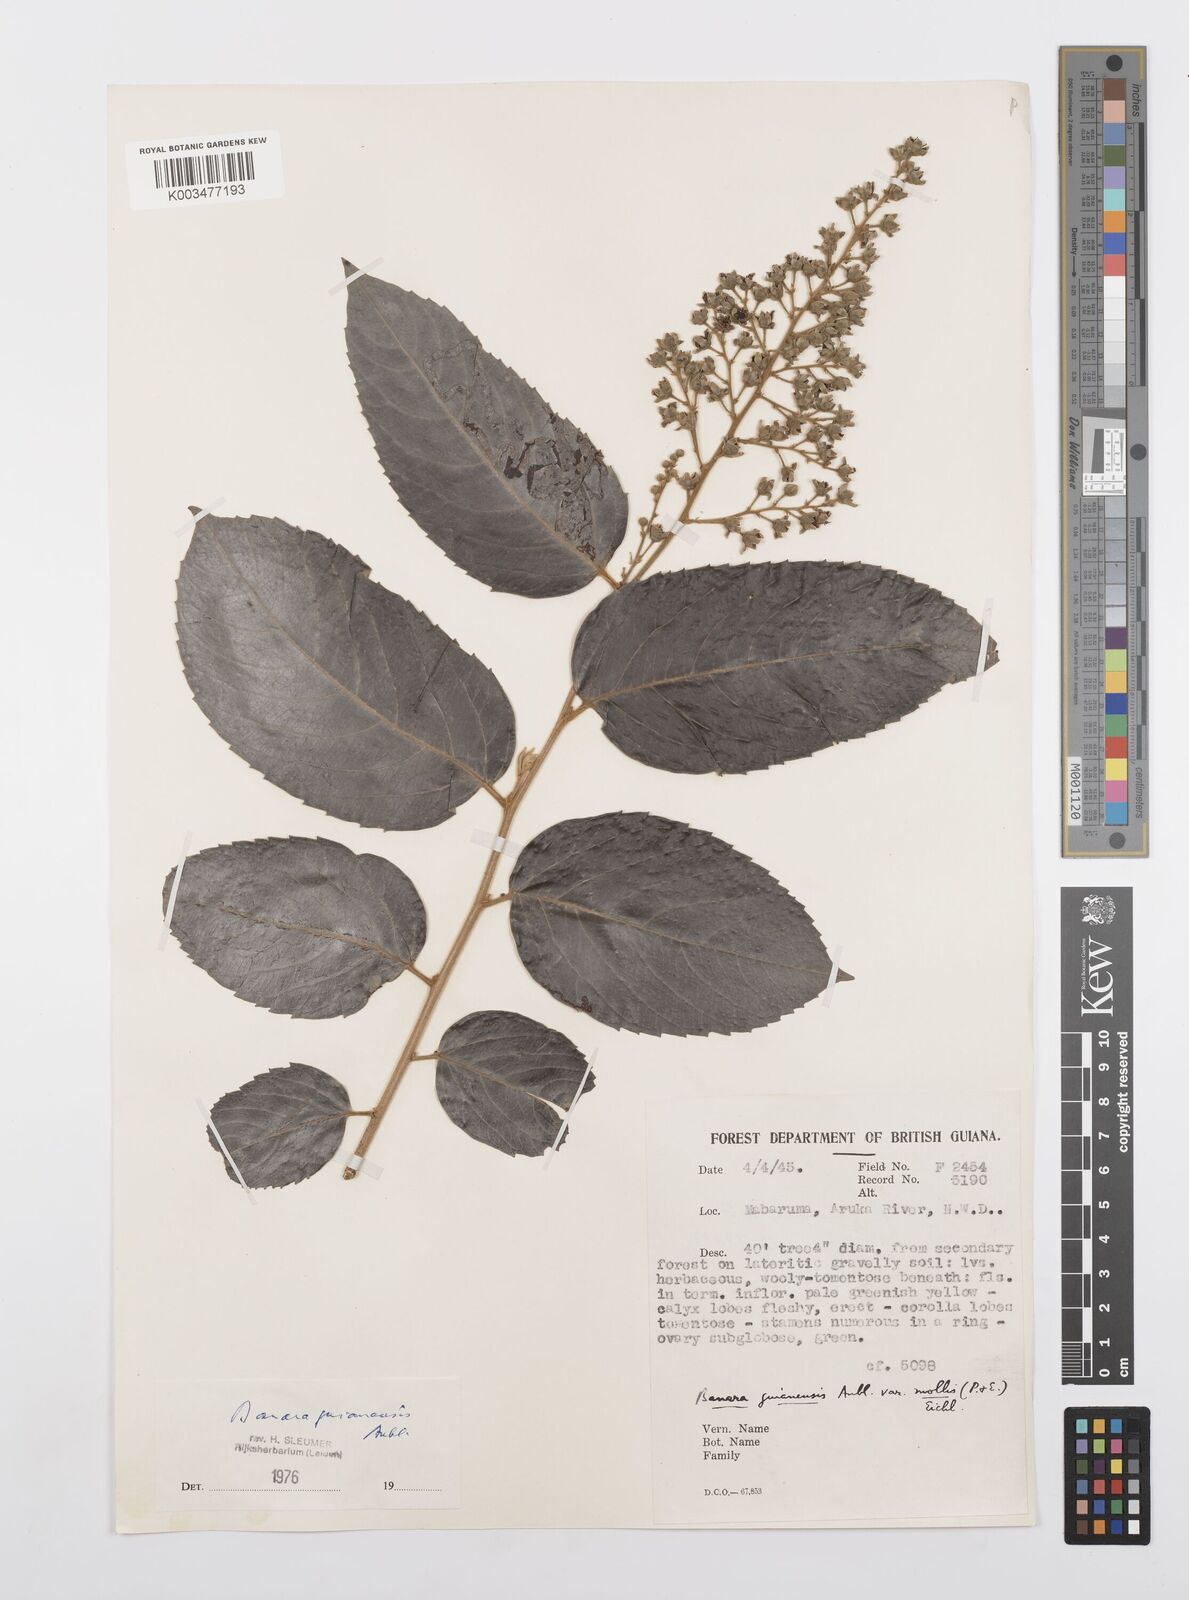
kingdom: Plantae
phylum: Tracheophyta
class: Magnoliopsida
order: Malpighiales
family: Salicaceae
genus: Banara
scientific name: Banara guianensis
